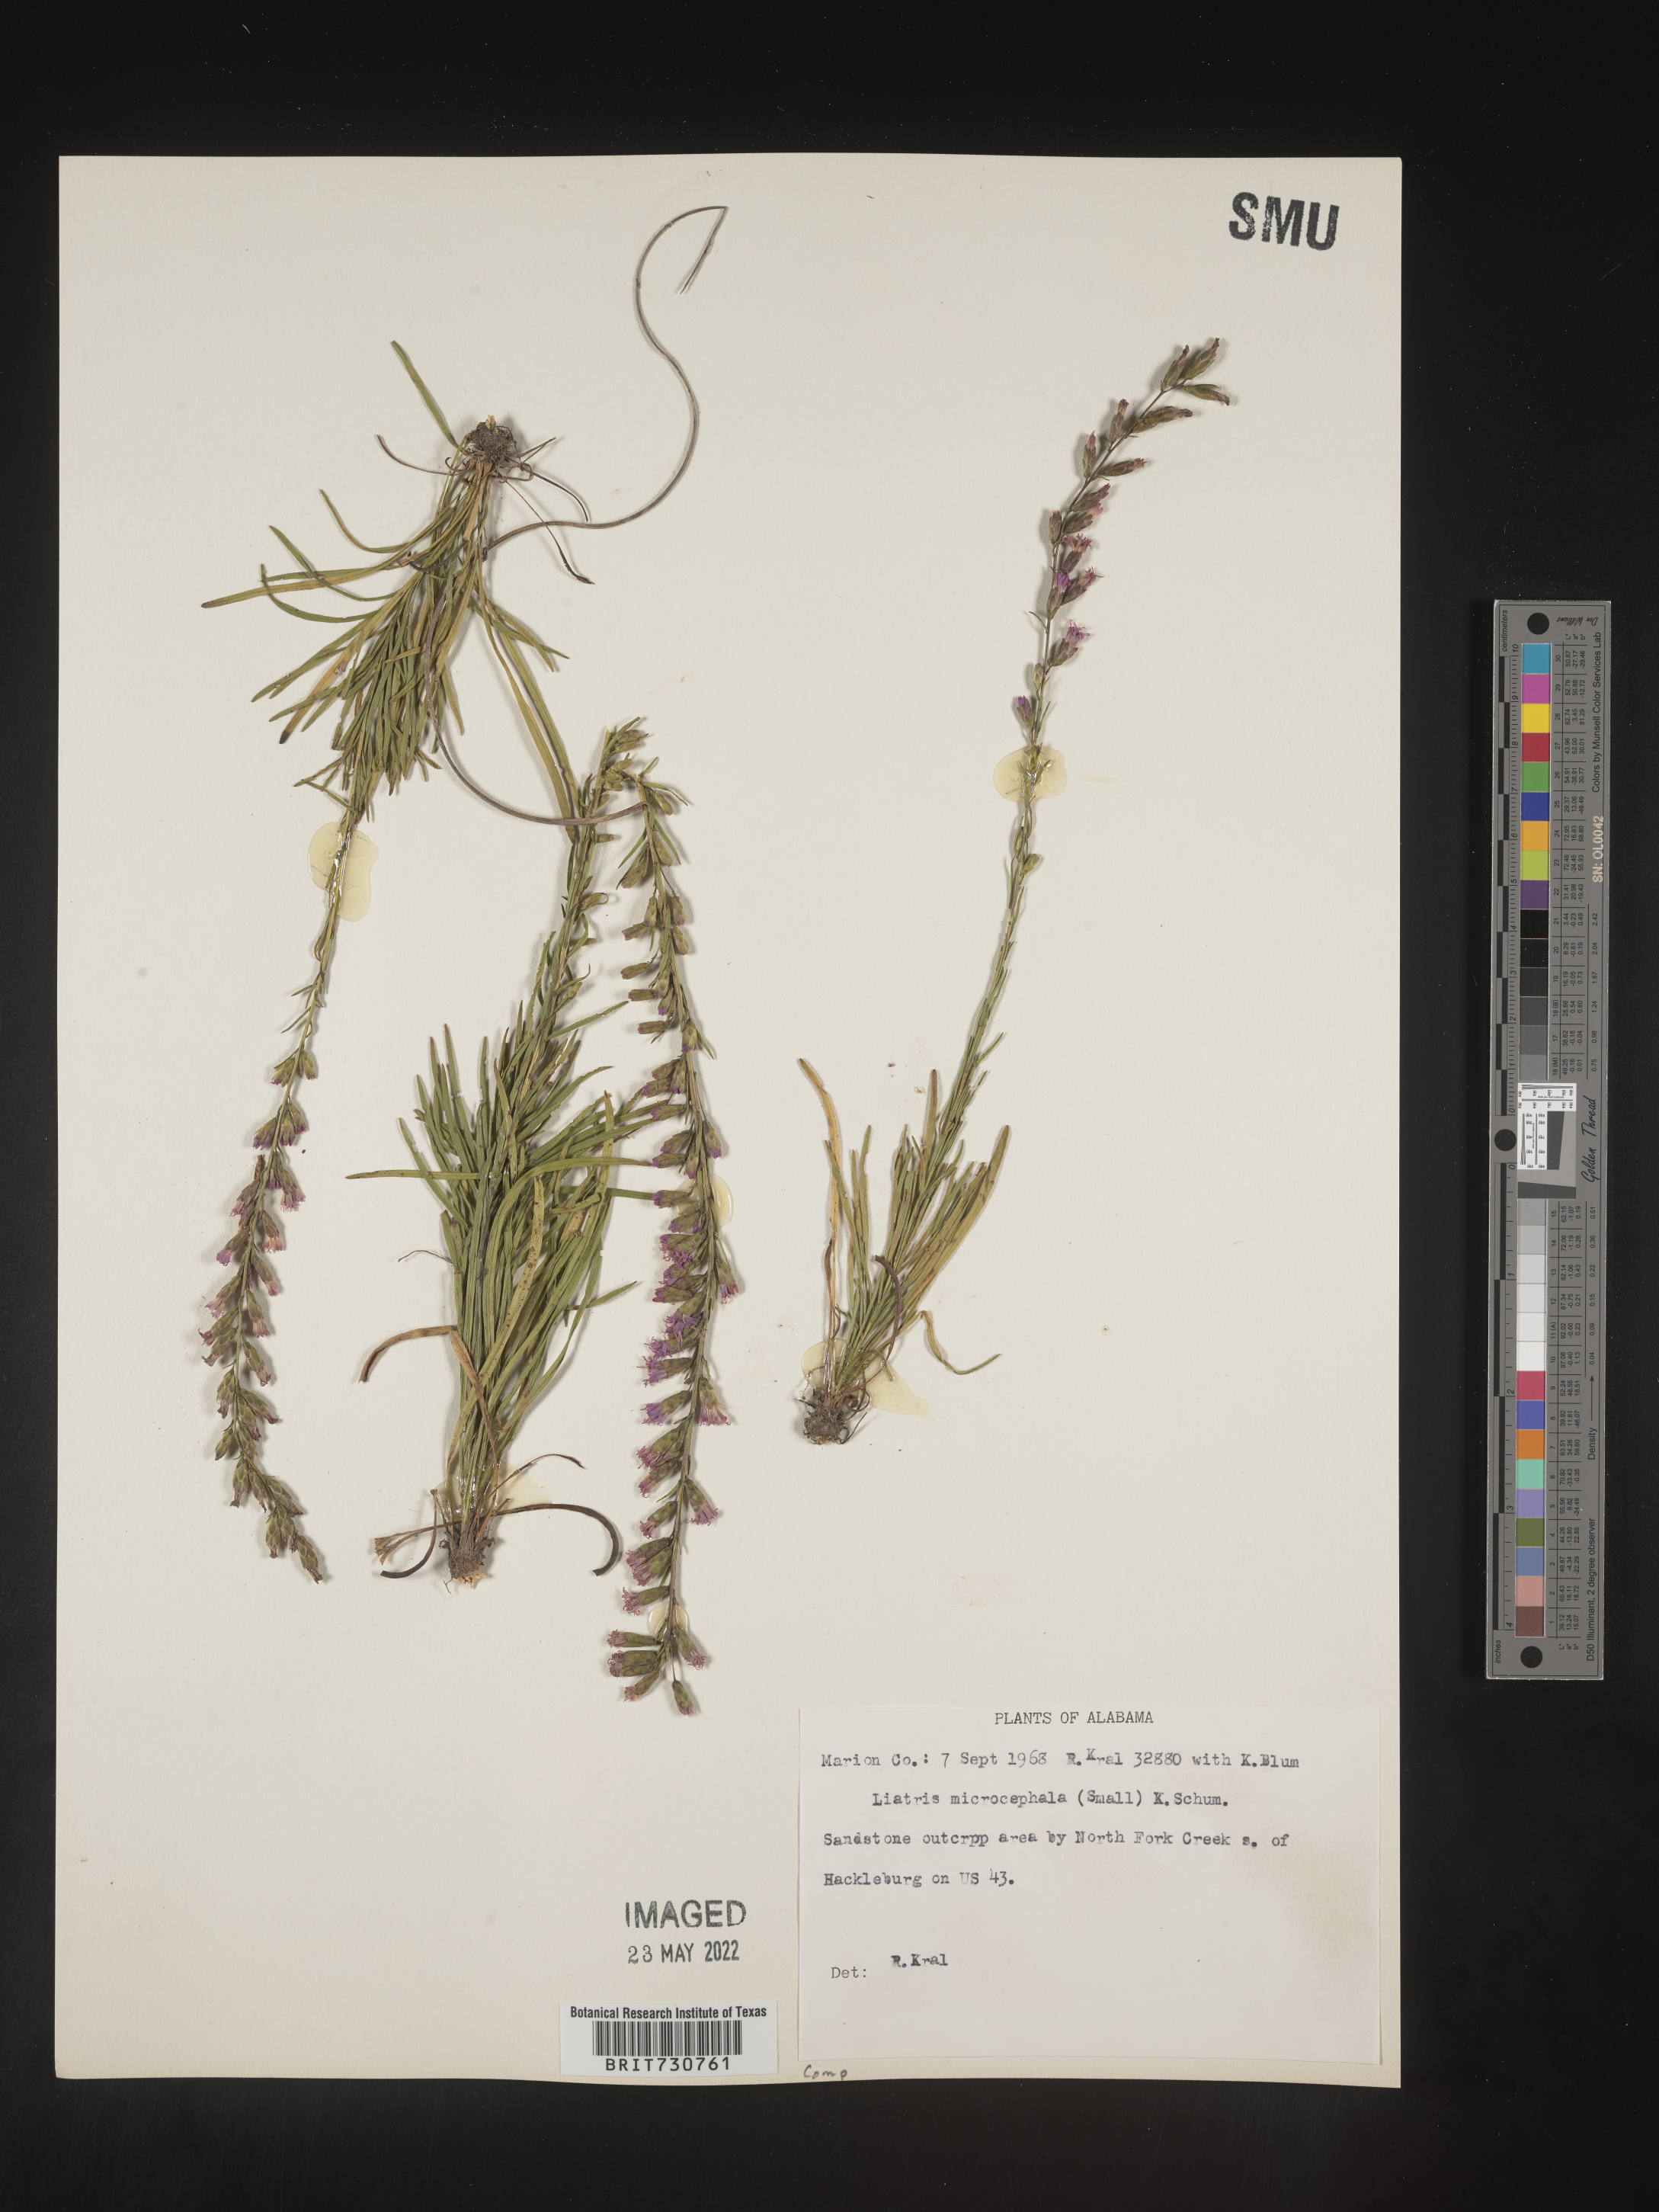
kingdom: Plantae
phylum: Tracheophyta
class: Magnoliopsida
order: Asterales
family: Asteraceae
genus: Liatris
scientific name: Liatris microcephala
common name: Small-head gayfeather
